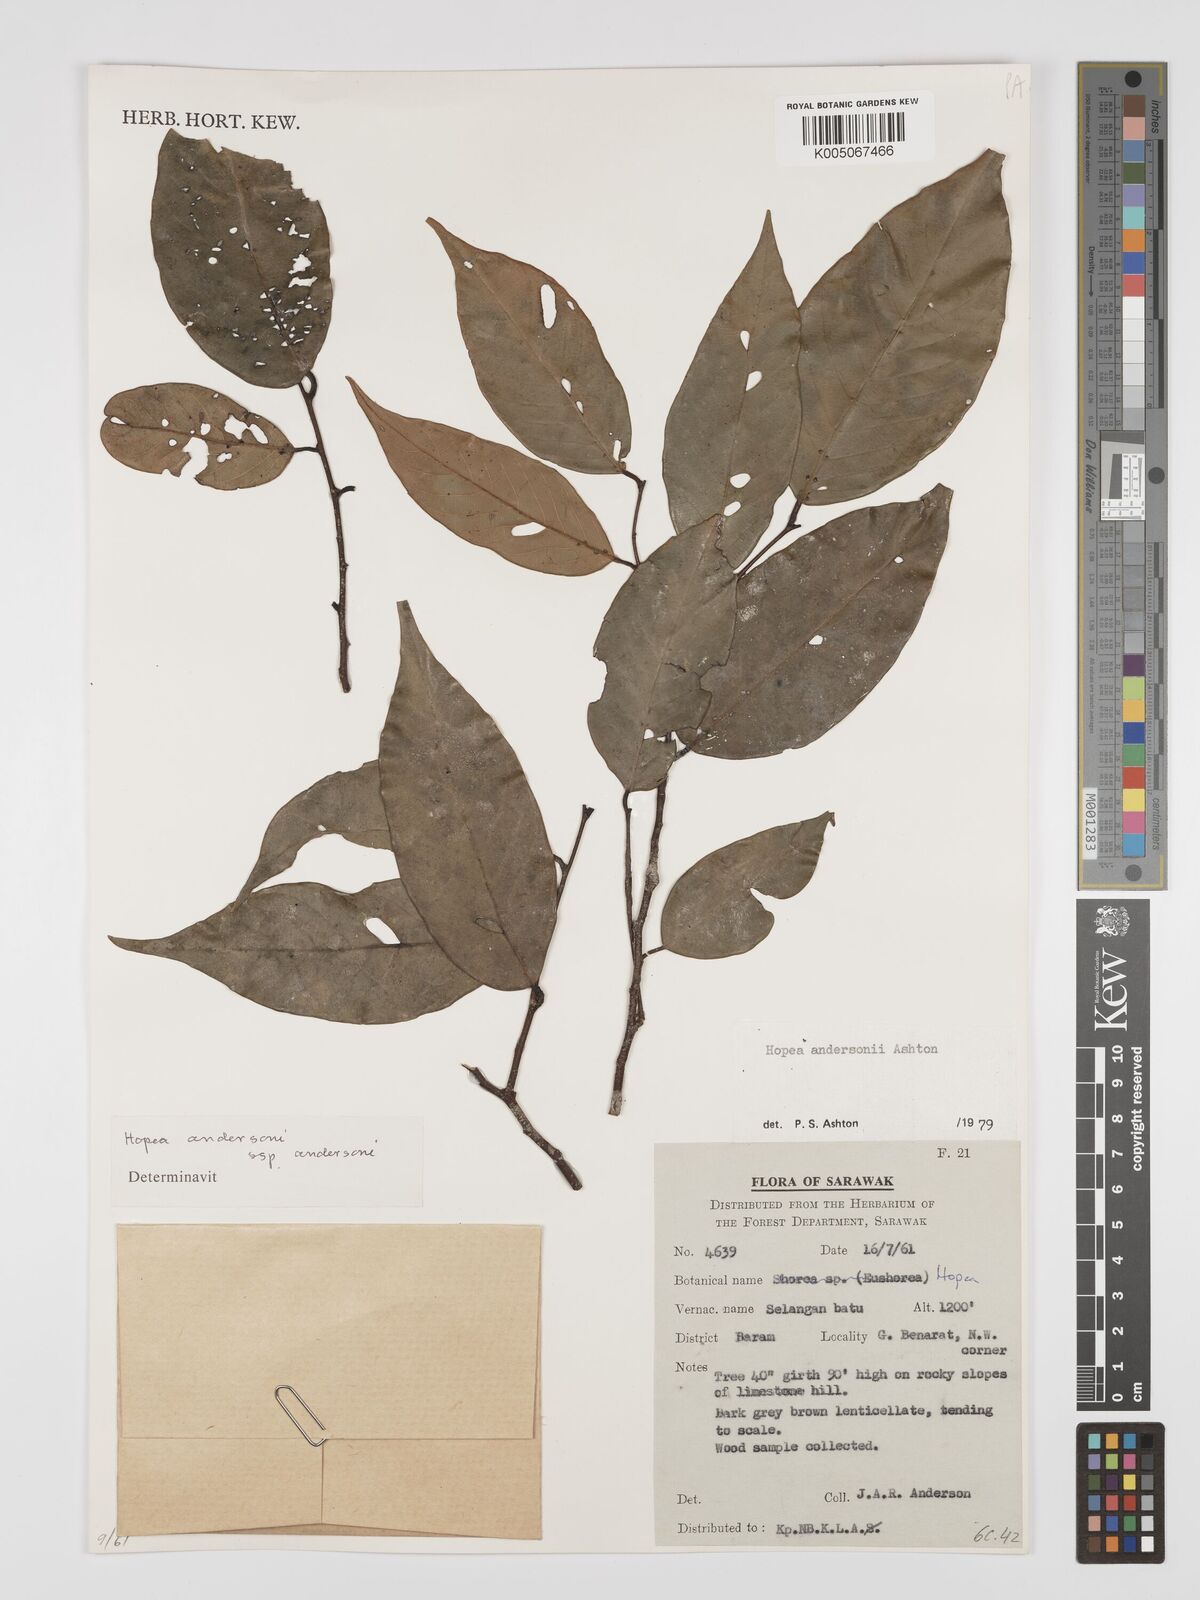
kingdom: Plantae
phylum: Tracheophyta
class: Magnoliopsida
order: Malvales
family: Dipterocarpaceae
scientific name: Dipterocarpaceae
